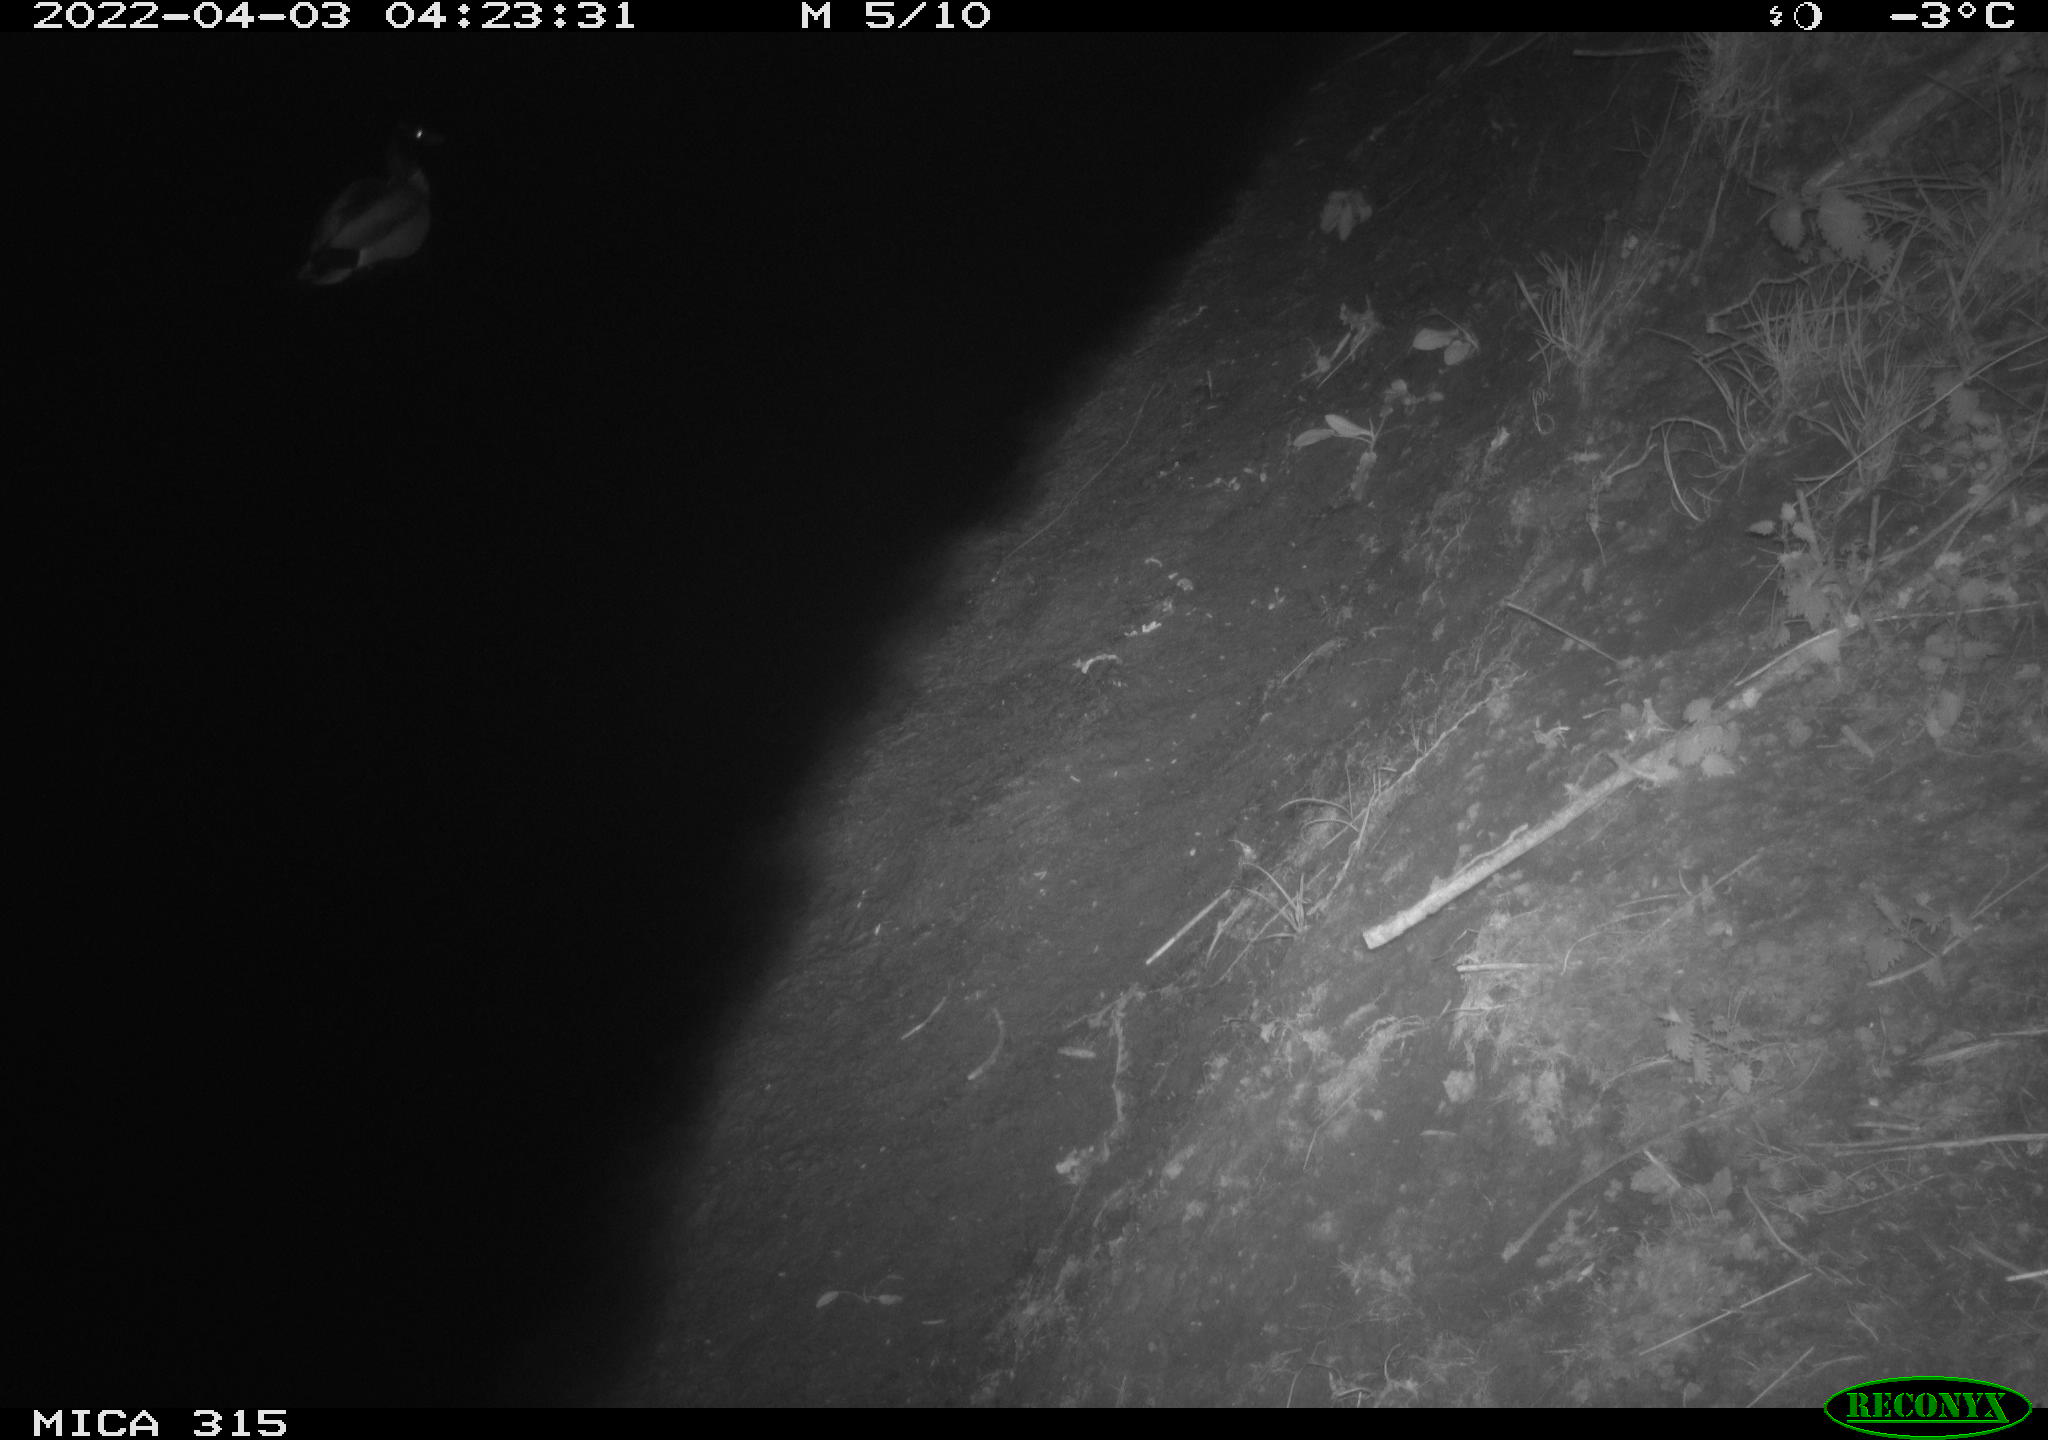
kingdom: Animalia
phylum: Chordata
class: Aves
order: Anseriformes
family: Anatidae
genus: Anas
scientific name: Anas platyrhynchos
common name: Mallard
